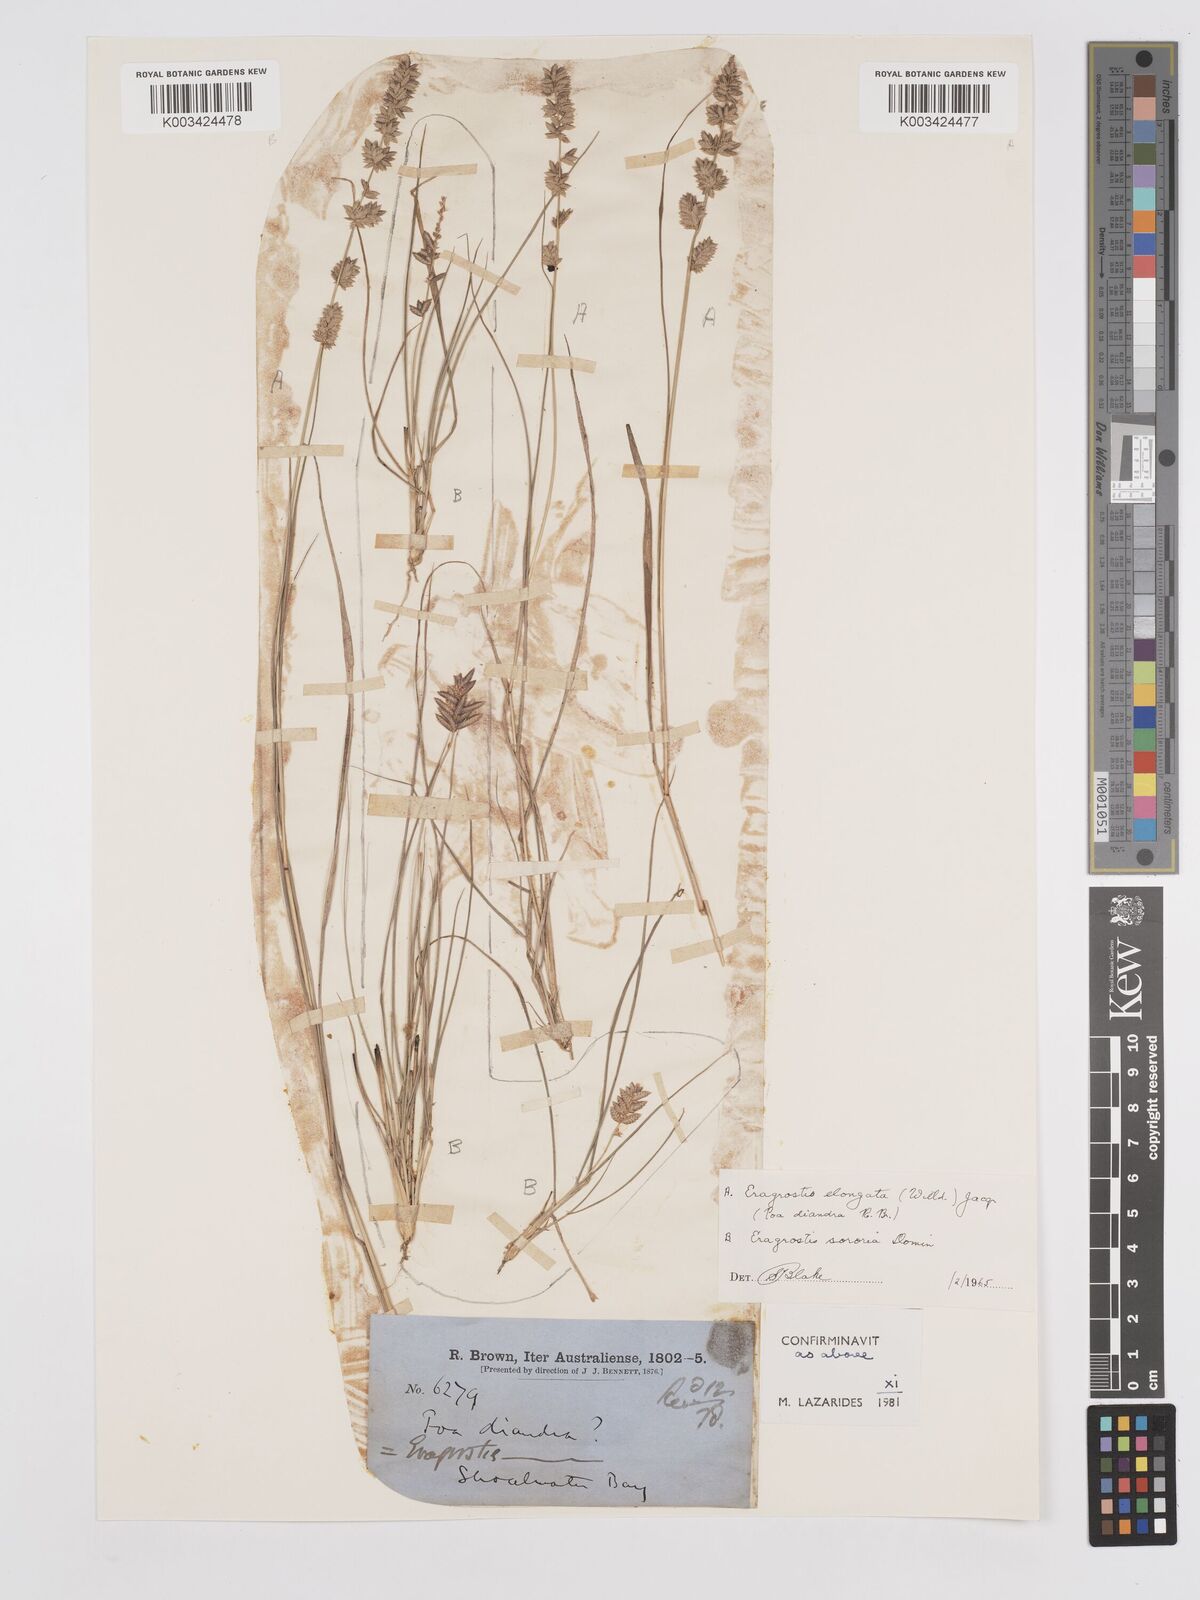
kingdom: Plantae
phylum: Tracheophyta
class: Liliopsida
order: Poales
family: Poaceae
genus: Eragrostis
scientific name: Eragrostis elongata
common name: Long lovegrass
